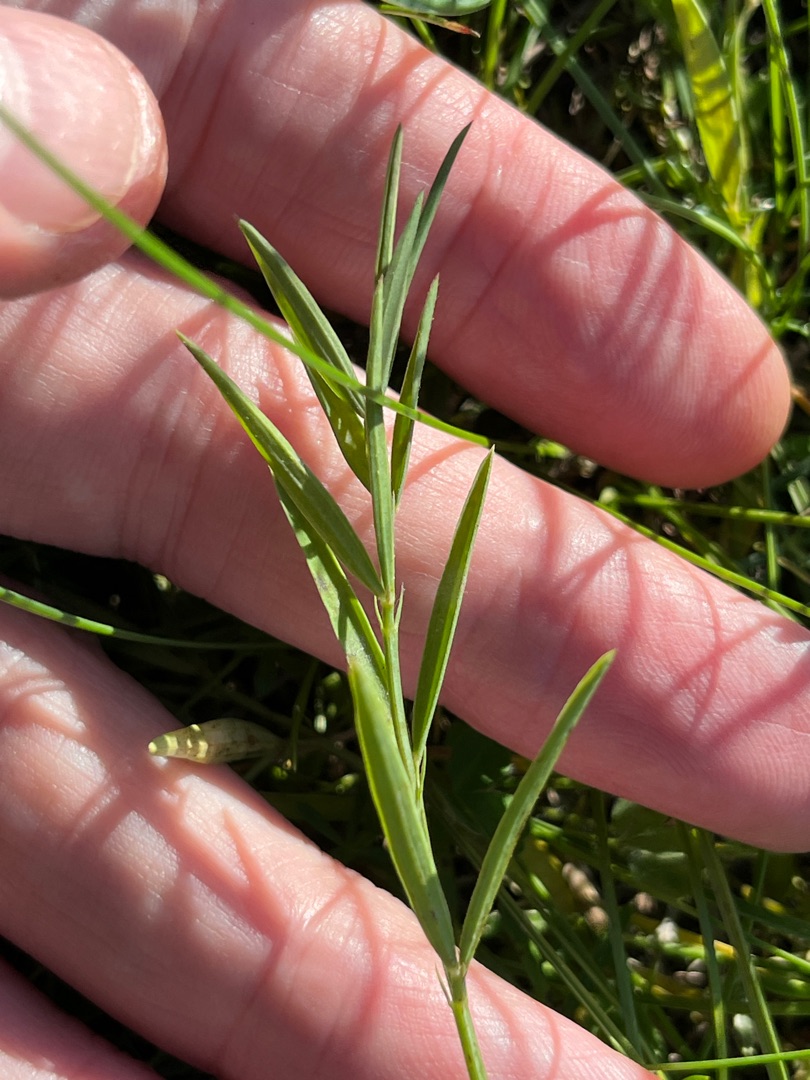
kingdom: Plantae
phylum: Tracheophyta
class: Magnoliopsida
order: Fabales
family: Fabaceae
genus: Lathyrus
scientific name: Lathyrus sphaericus
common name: Enblomstret fladbælg
